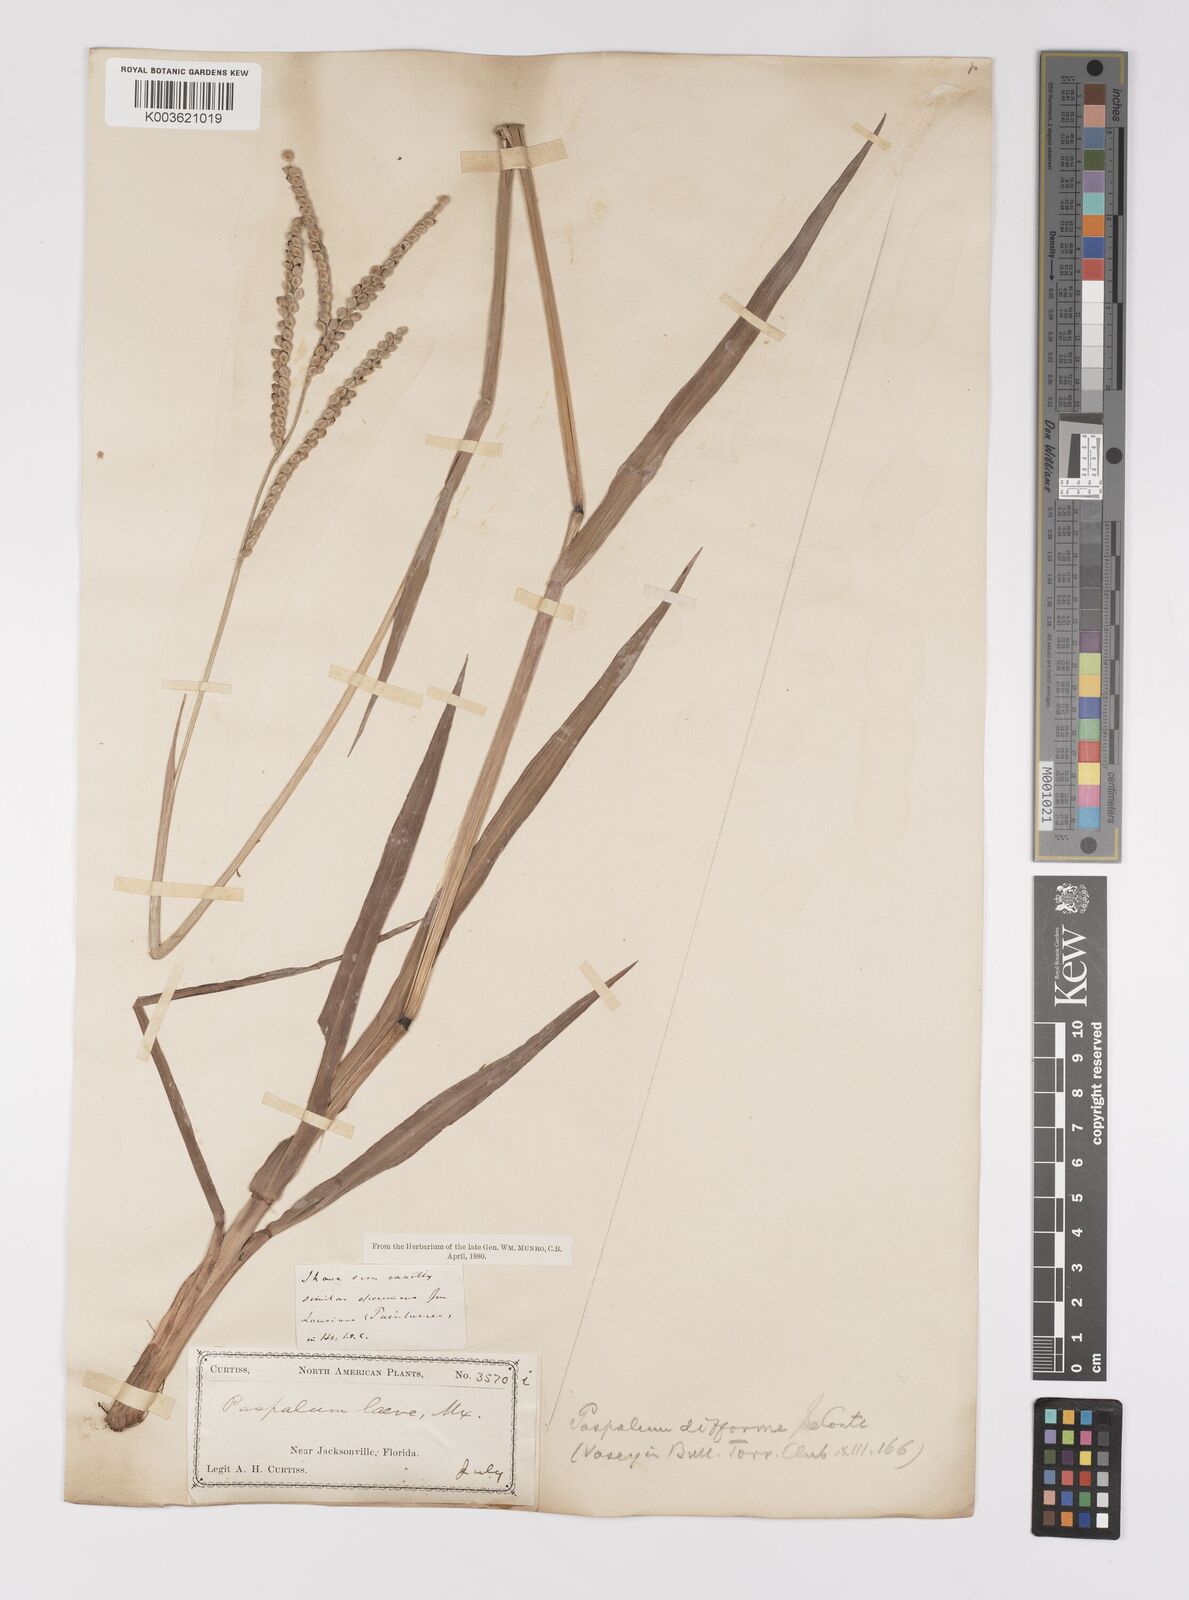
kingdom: Plantae
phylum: Tracheophyta
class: Liliopsida
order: Poales
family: Poaceae
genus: Paspalum
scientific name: Paspalum floridanum
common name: Florida paspalum
